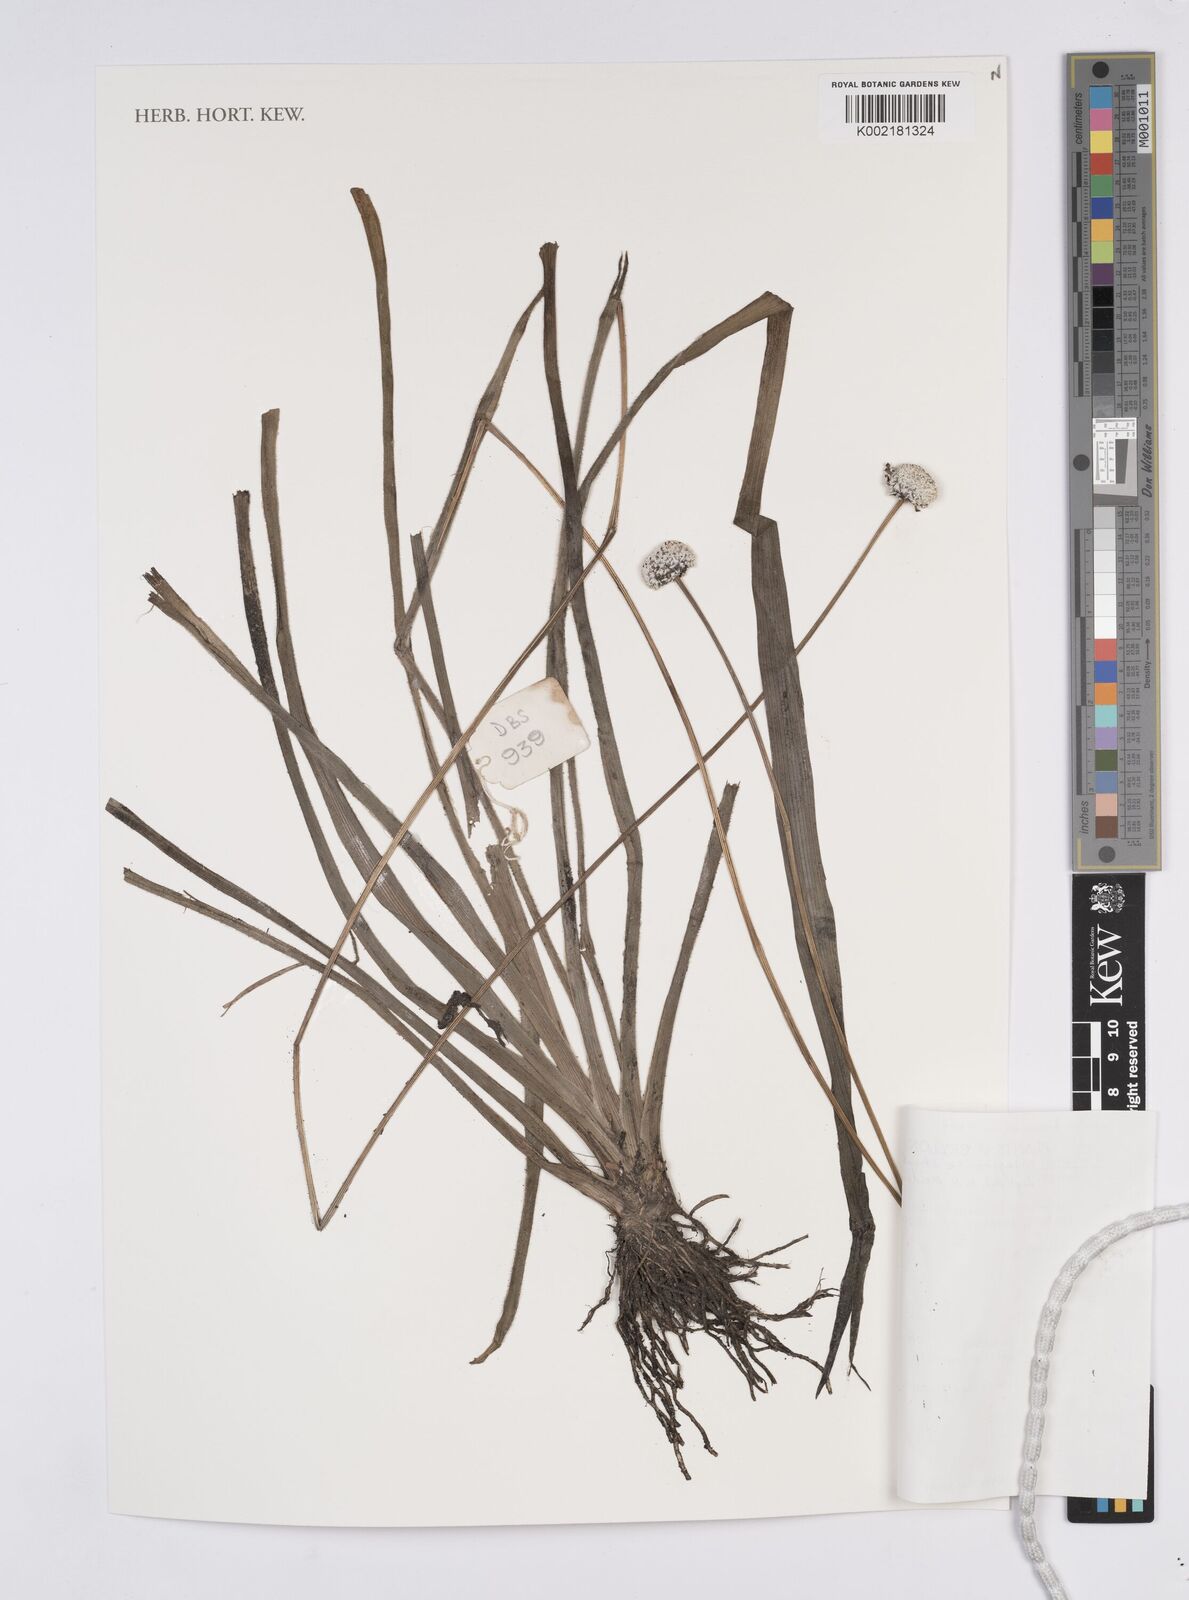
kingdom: Plantae
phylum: Tracheophyta
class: Liliopsida
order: Poales
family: Eriocaulaceae
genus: Eriocaulon
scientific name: Eriocaulon brownianum
